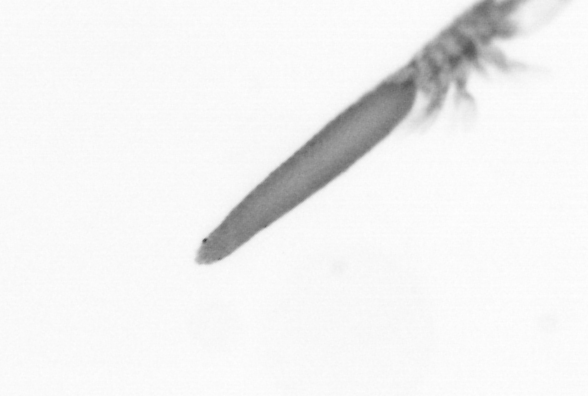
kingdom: Animalia
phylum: Arthropoda
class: Copepoda
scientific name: Copepoda
